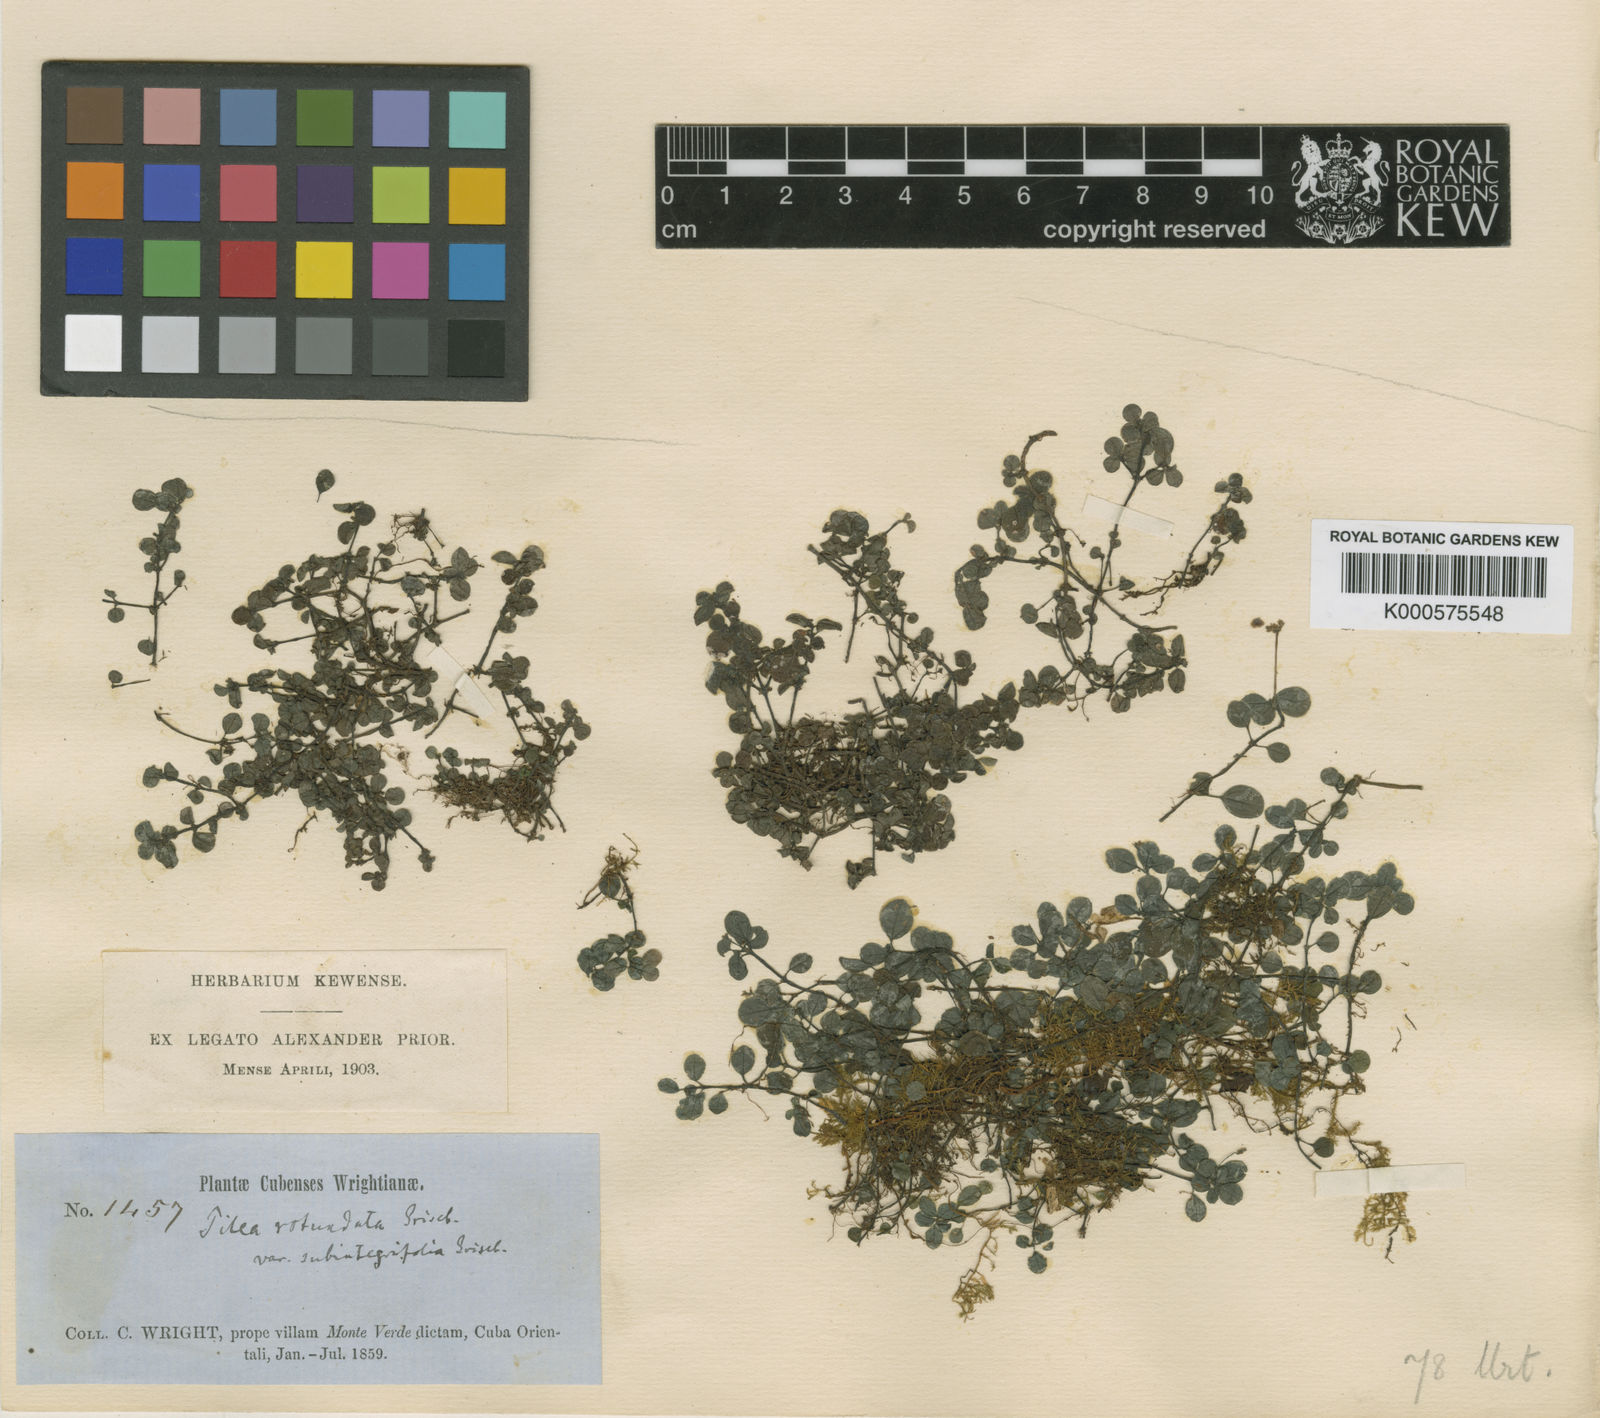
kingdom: Plantae
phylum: Tracheophyta
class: Magnoliopsida
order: Rosales
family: Urticaceae
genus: Pilea
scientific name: Pilea rotundata
